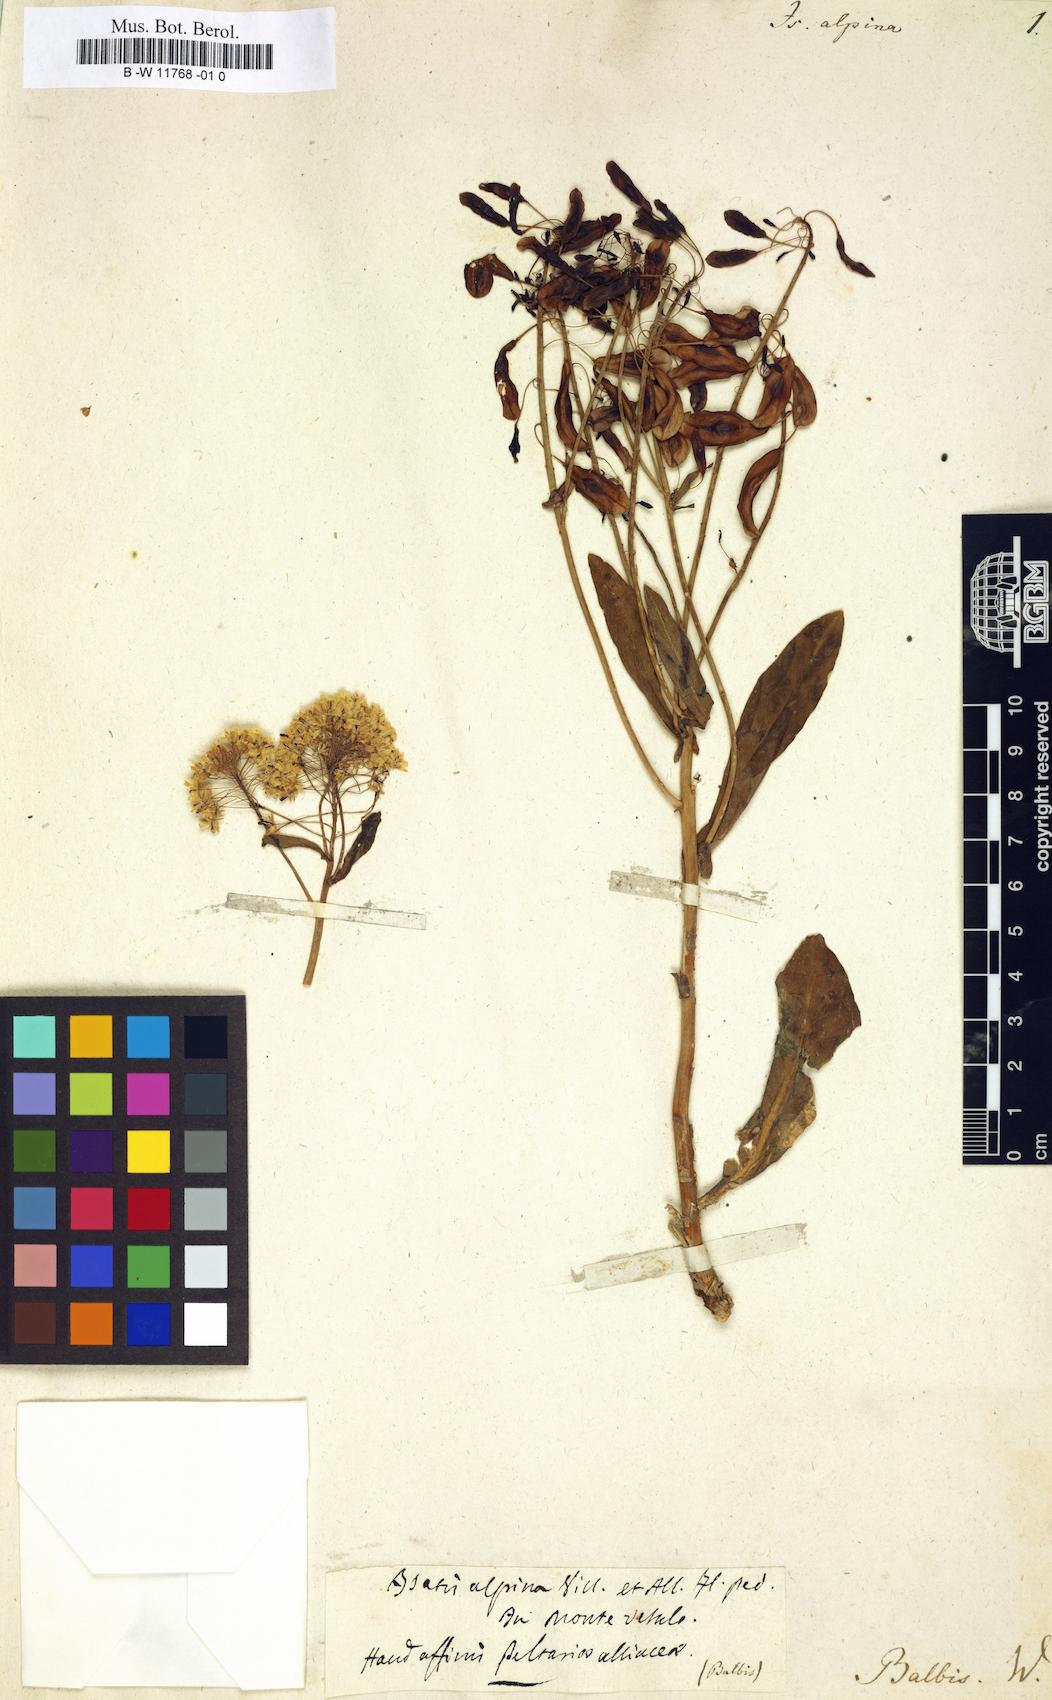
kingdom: Plantae
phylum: Tracheophyta
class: Magnoliopsida
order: Brassicales
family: Brassicaceae
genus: Isatis
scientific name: Isatis
